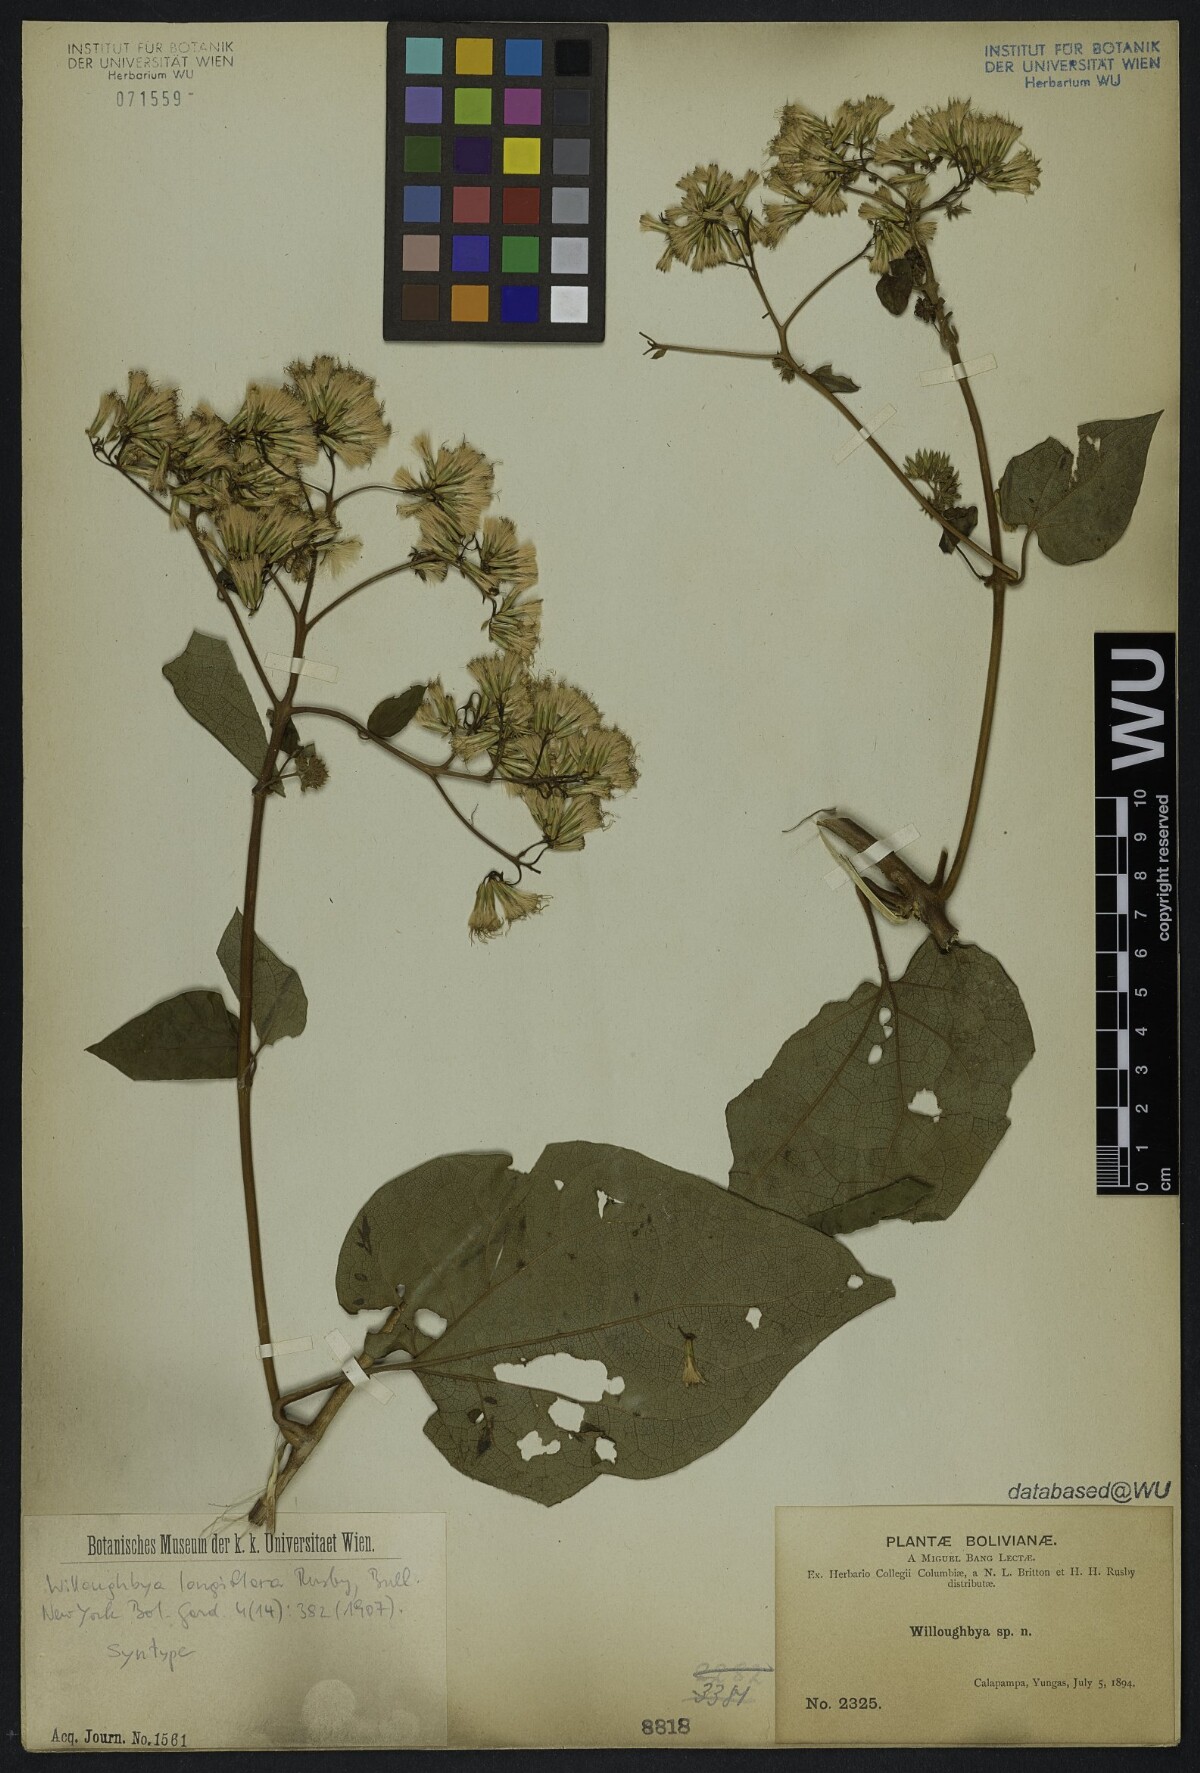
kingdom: Plantae
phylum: Tracheophyta
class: Magnoliopsida
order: Asterales
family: Asteraceae
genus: Mikania
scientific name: Mikania longiflora
